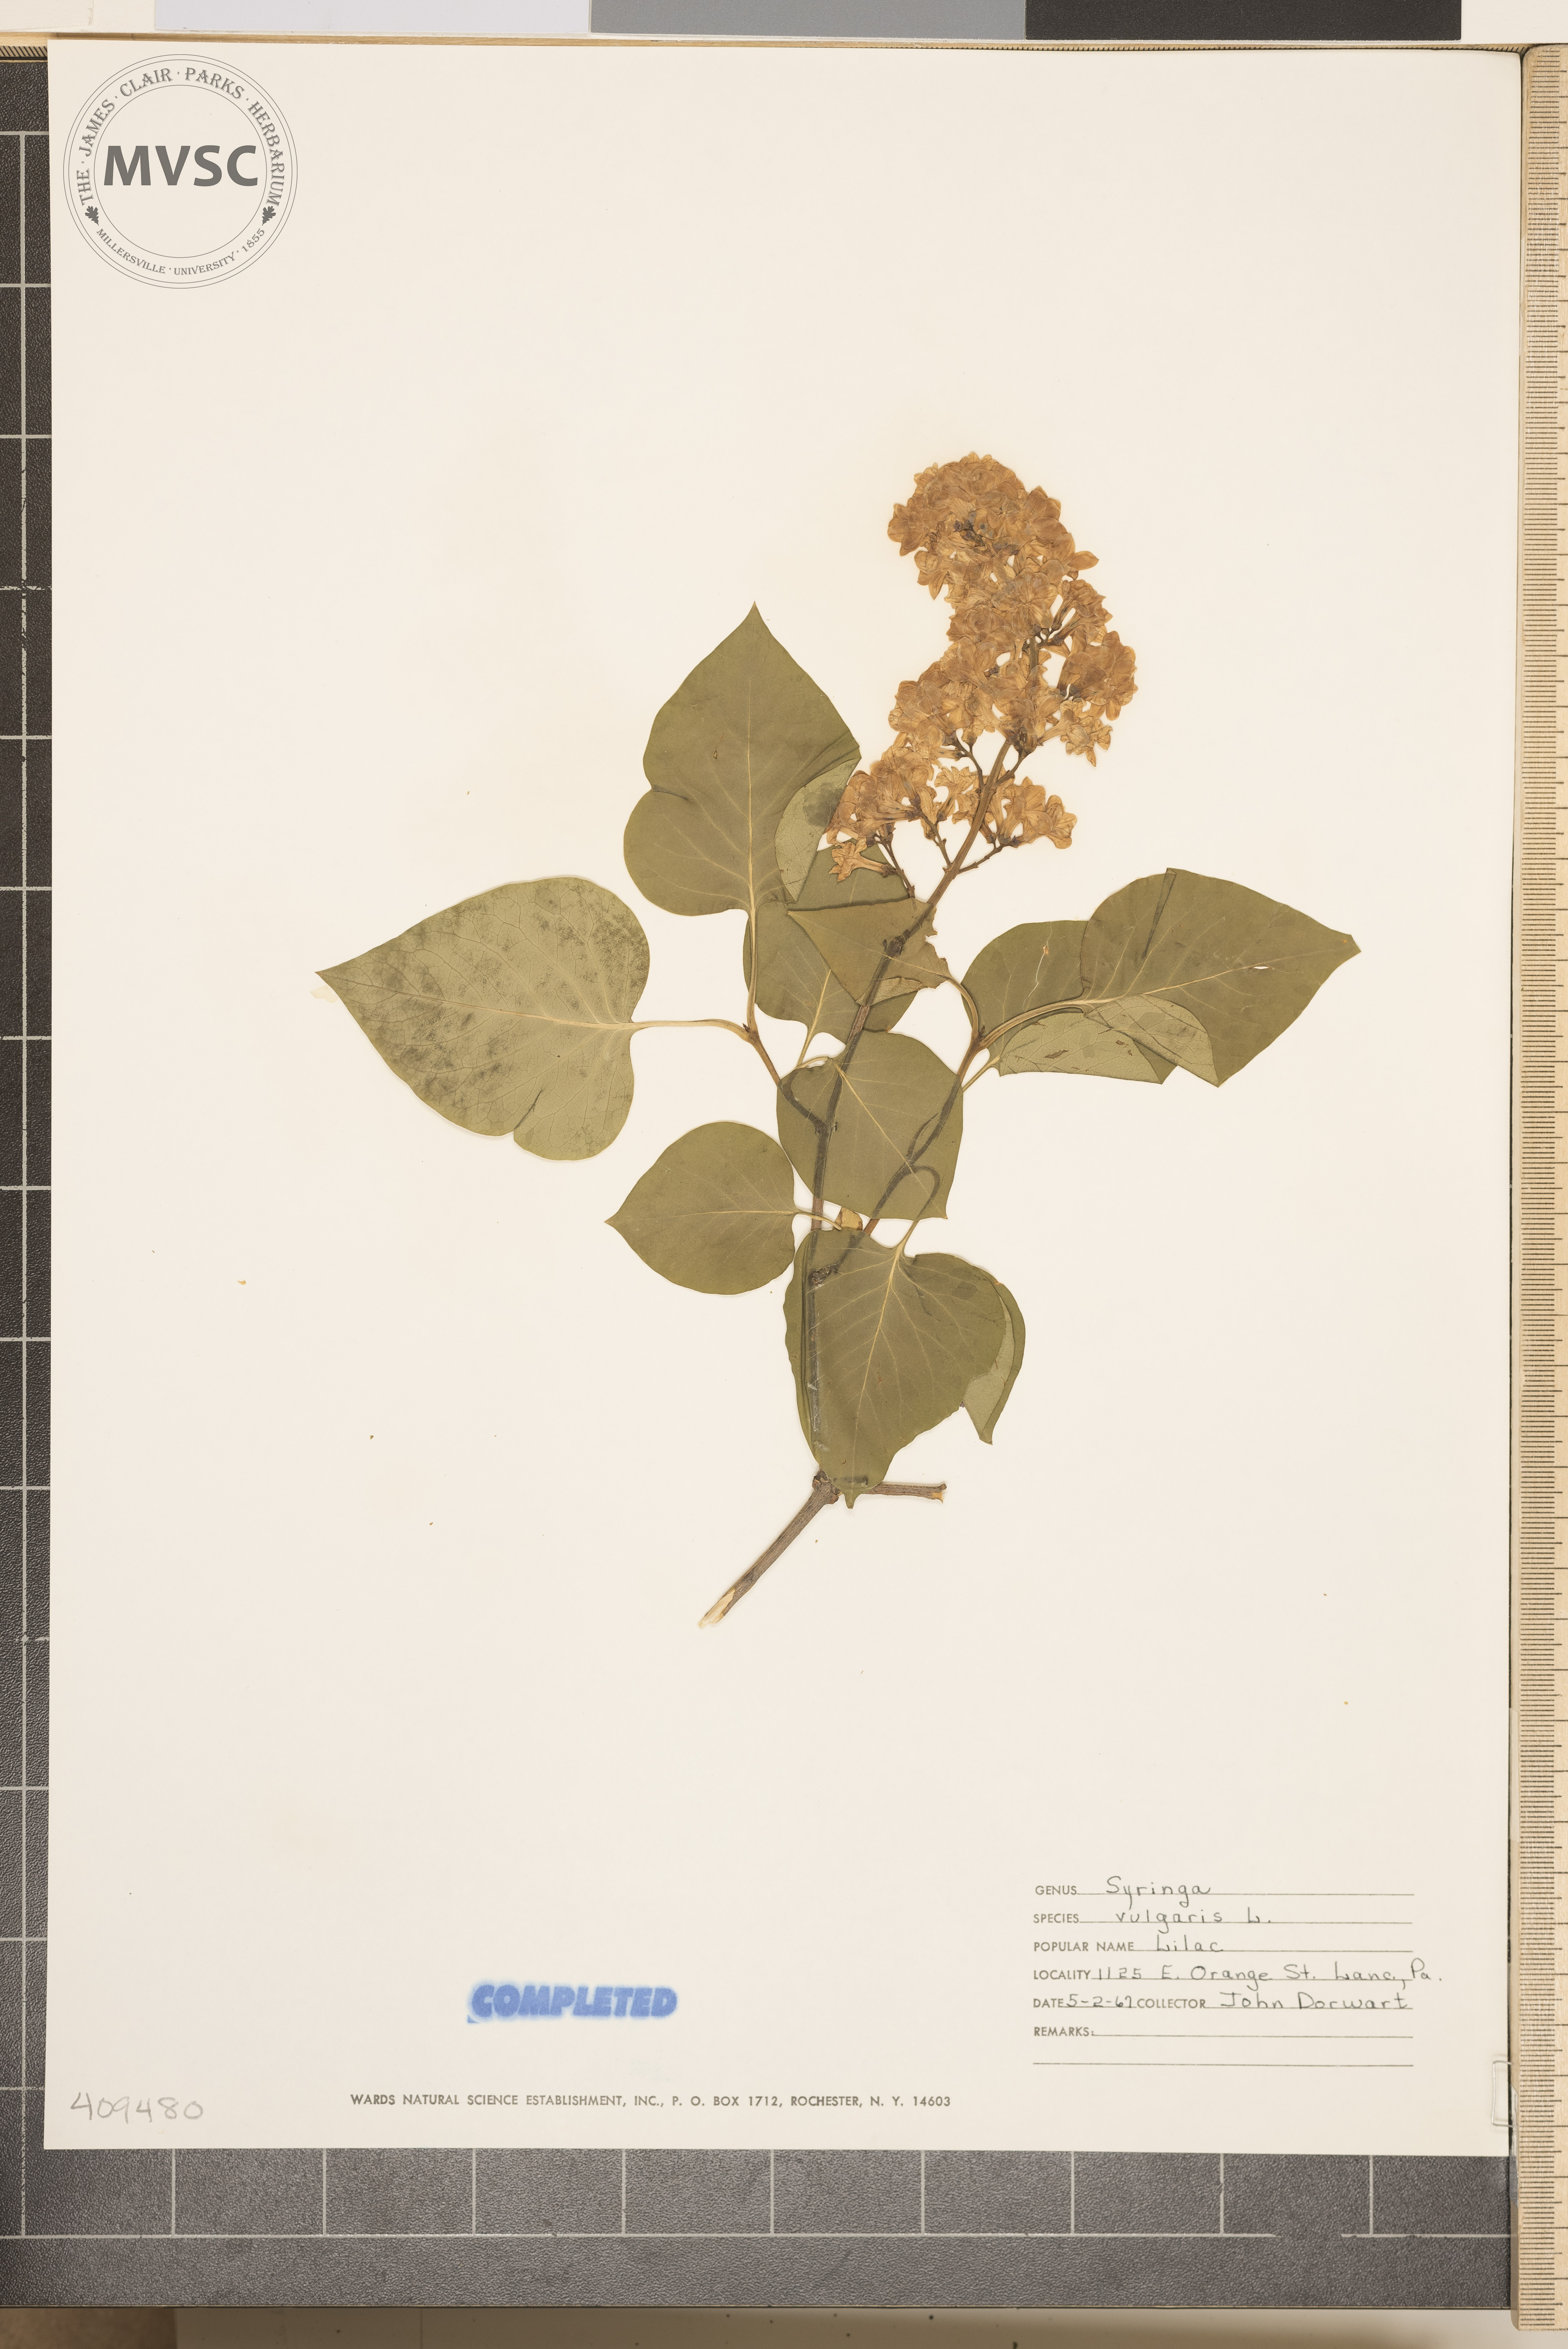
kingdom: Plantae
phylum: Tracheophyta
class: Magnoliopsida
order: Lamiales
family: Oleaceae
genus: Syringa
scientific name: Syringa vulgaris
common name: Common lilac
